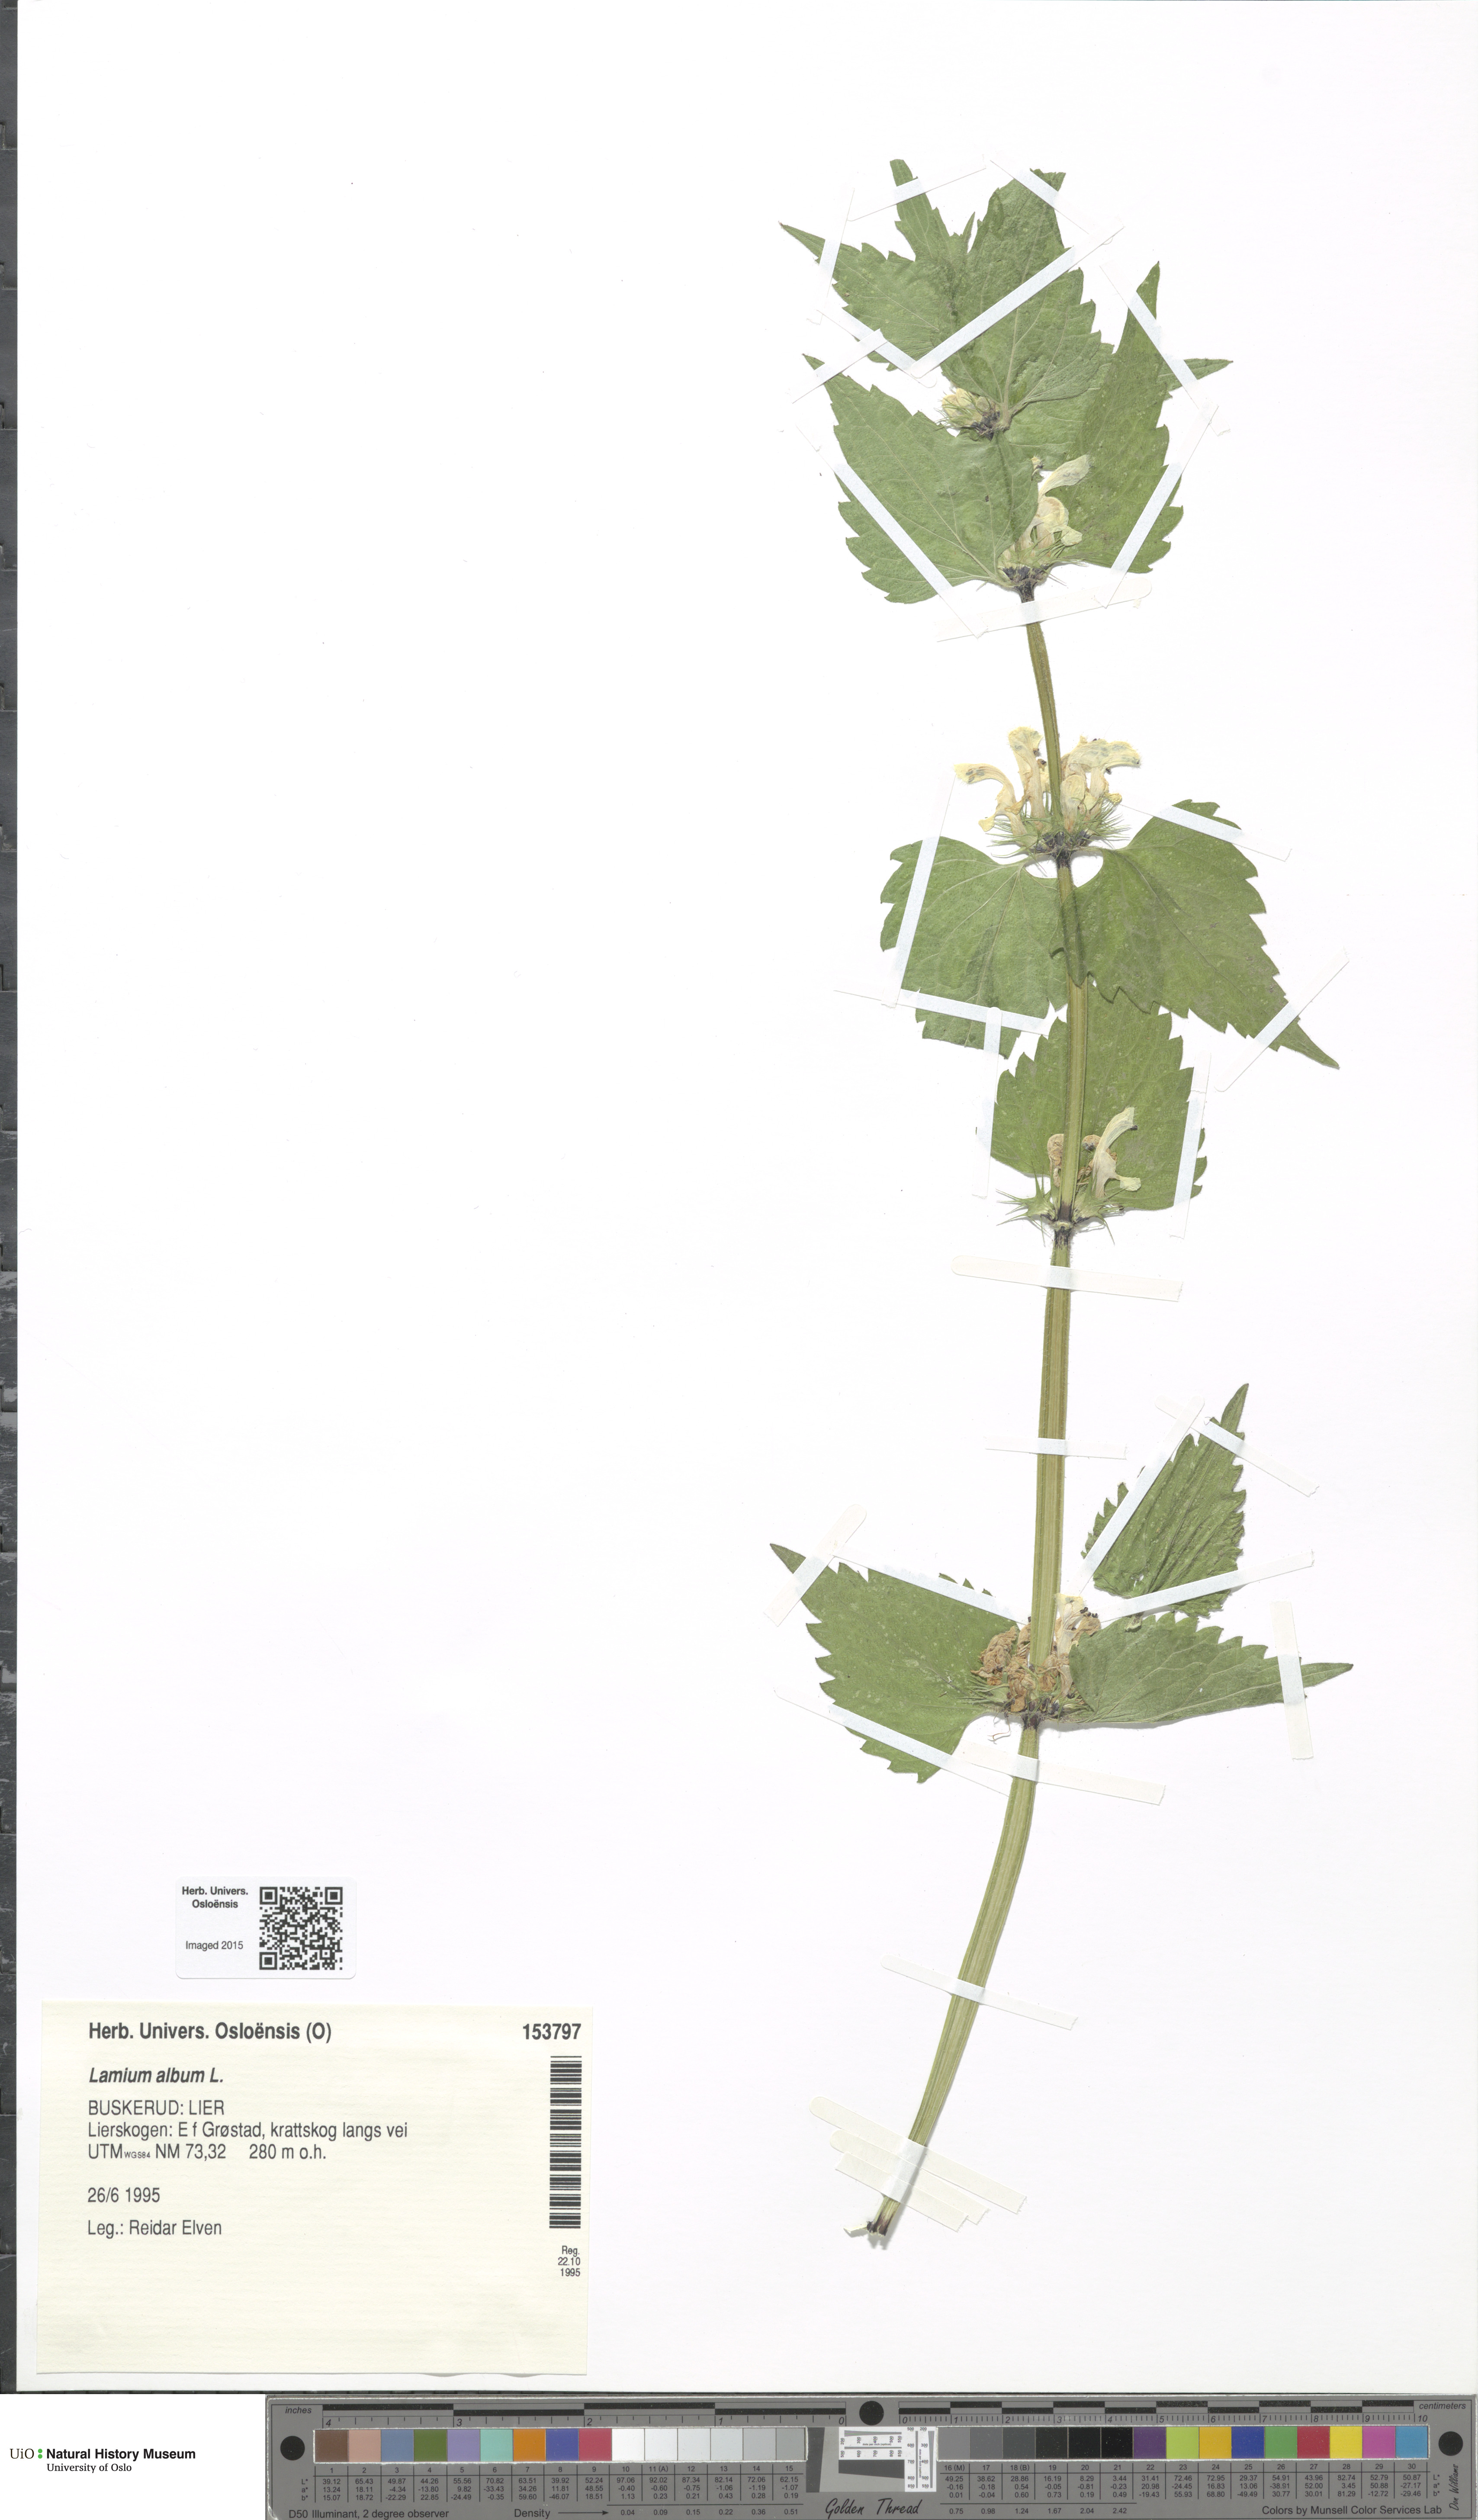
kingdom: Plantae
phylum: Tracheophyta
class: Magnoliopsida
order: Lamiales
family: Lamiaceae
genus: Lamium
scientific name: Lamium album
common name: White dead-nettle
